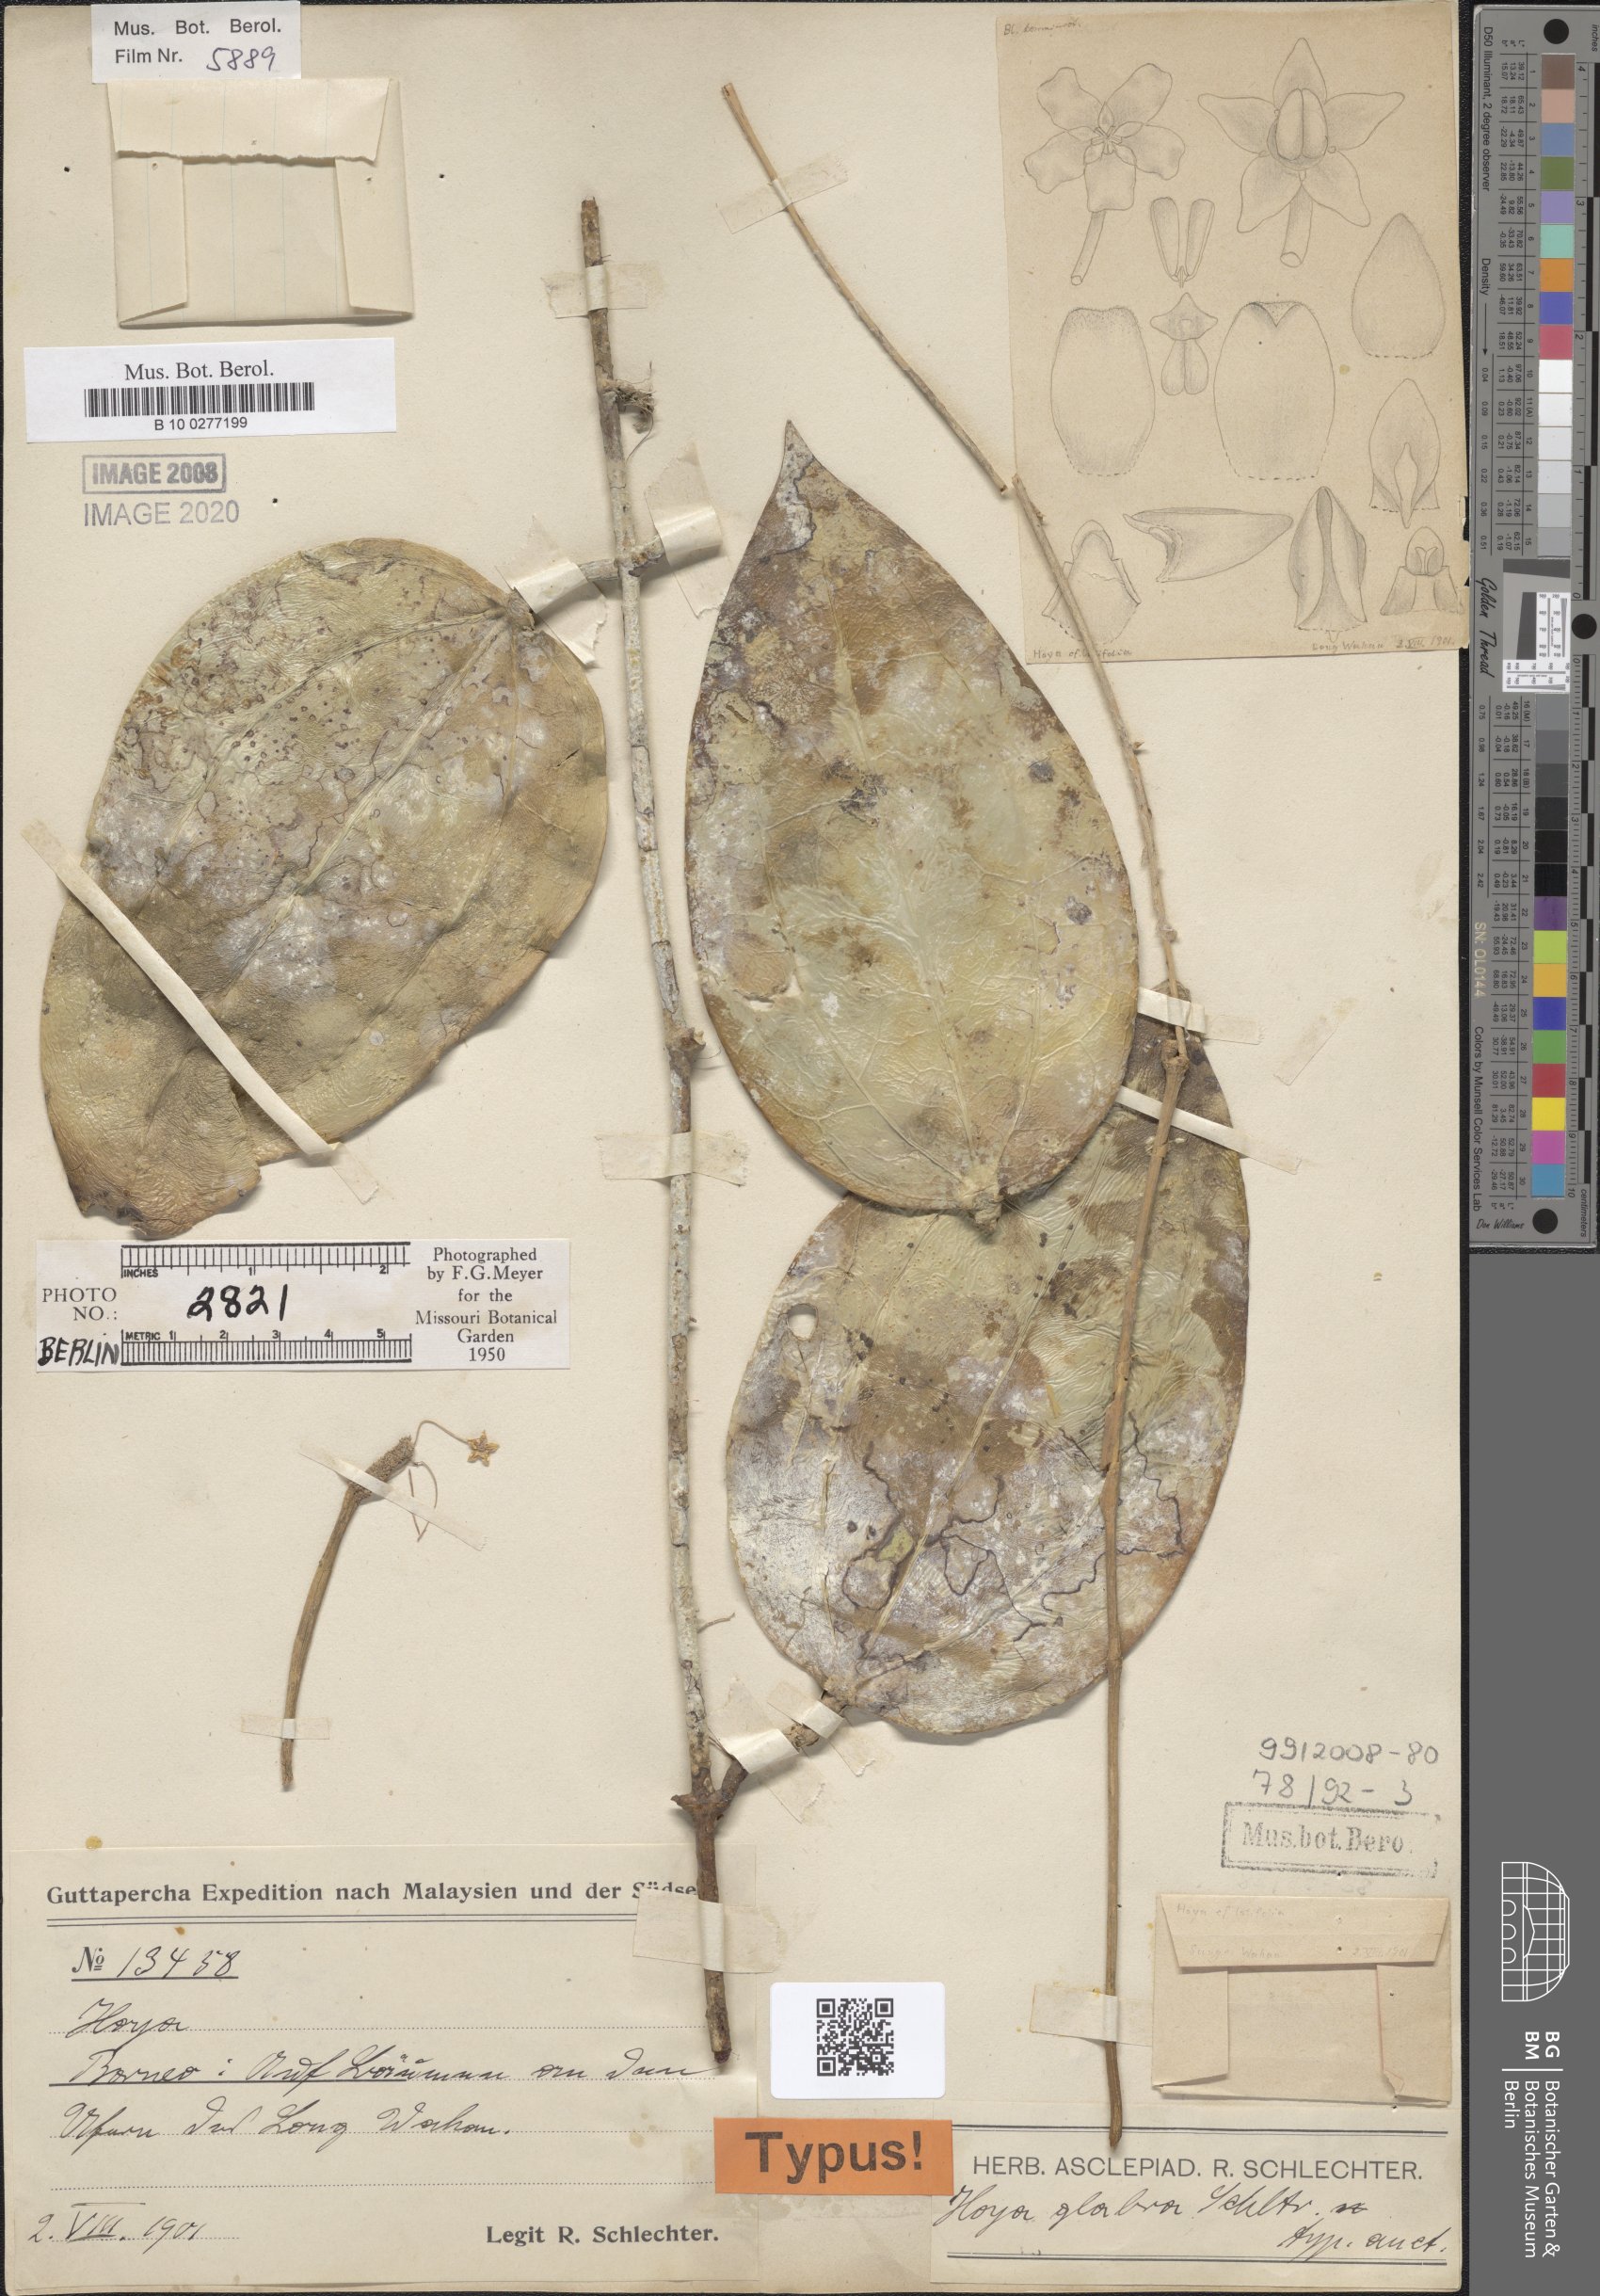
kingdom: Plantae
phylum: Tracheophyta
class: Magnoliopsida
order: Gentianales
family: Apocynaceae
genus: Hoya
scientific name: Hoya glabra
